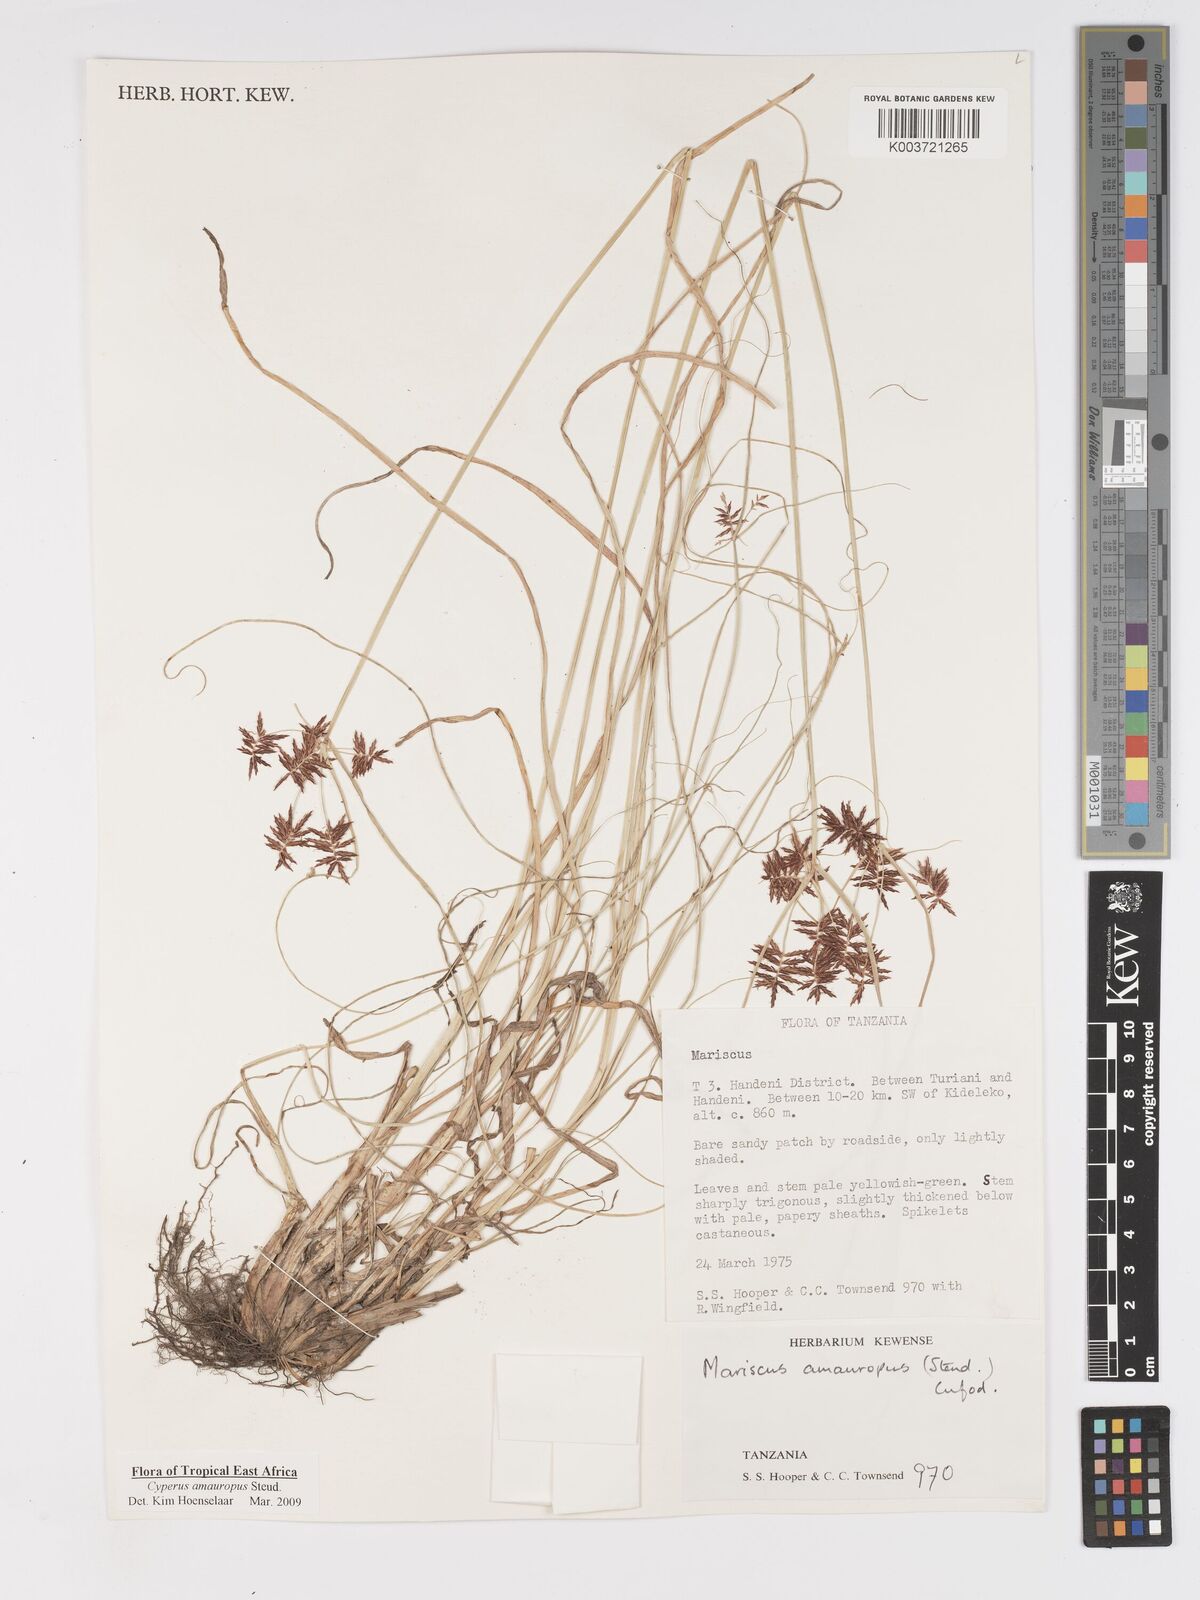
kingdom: Plantae
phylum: Tracheophyta
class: Liliopsida
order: Poales
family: Cyperaceae
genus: Cyperus
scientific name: Cyperus amauropus
